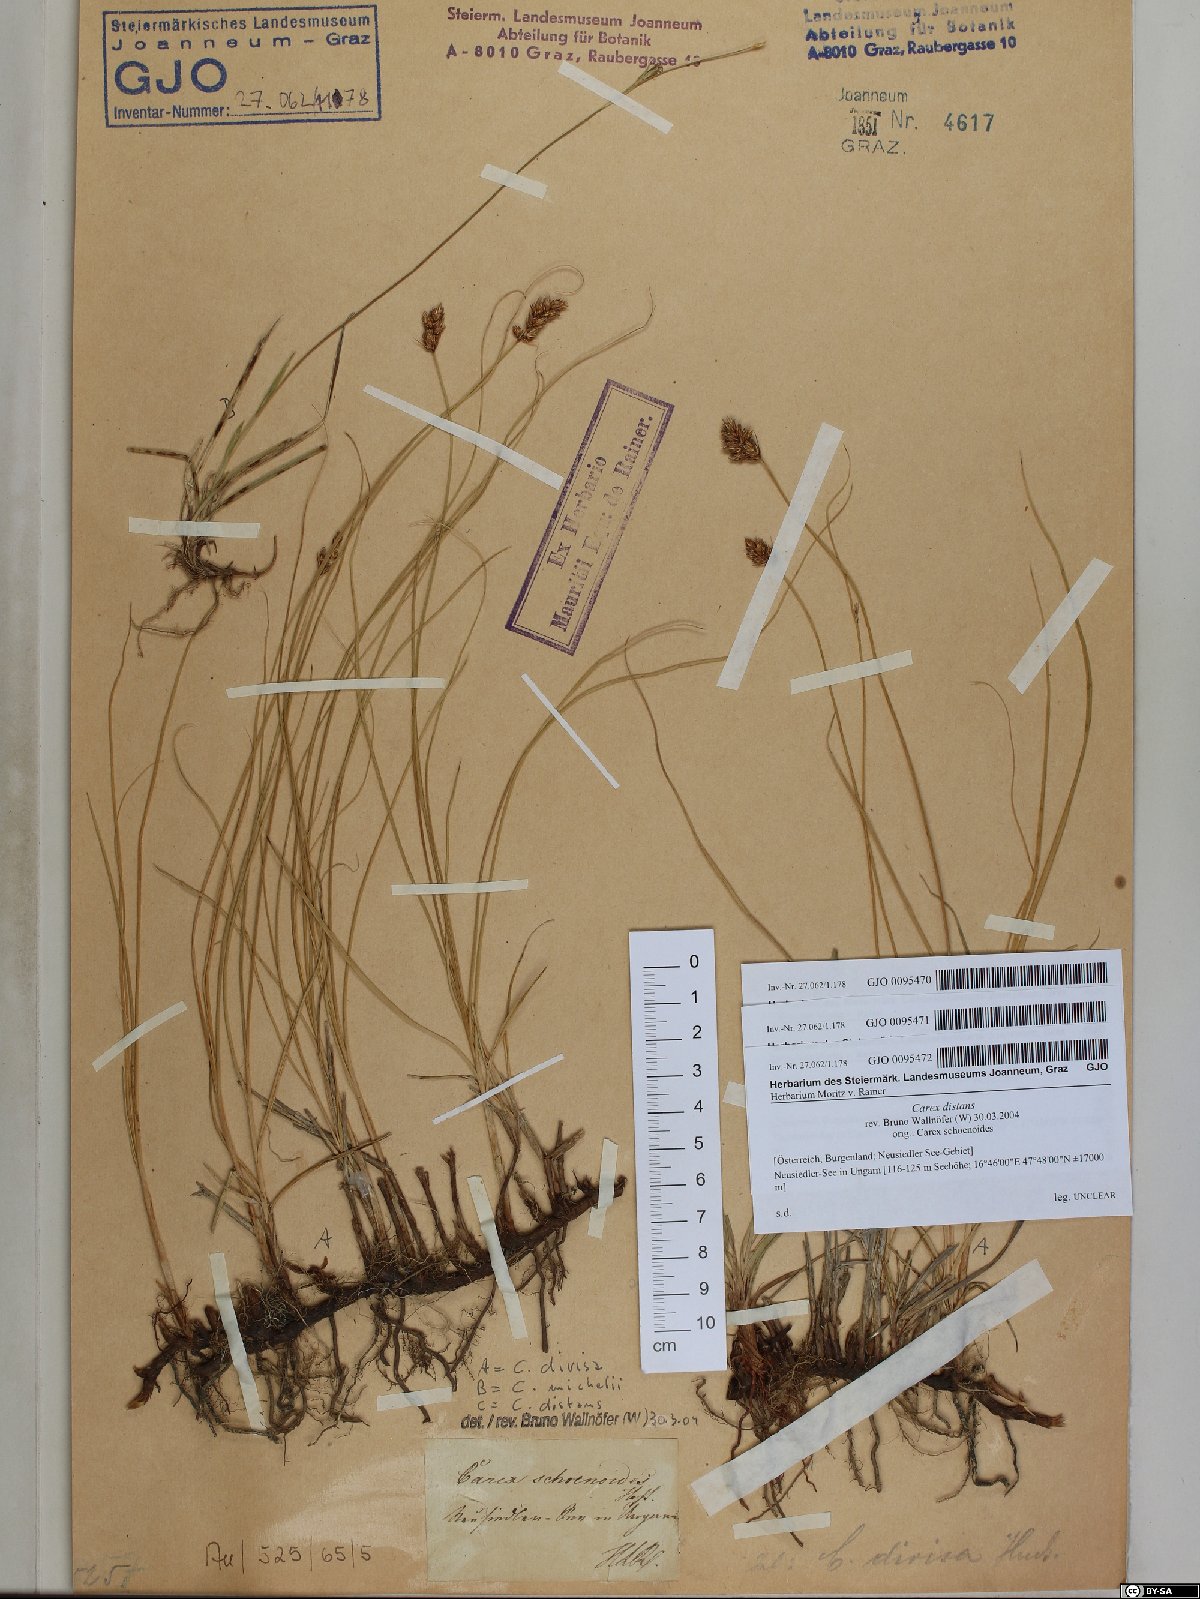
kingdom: Plantae
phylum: Tracheophyta
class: Liliopsida
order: Poales
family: Cyperaceae
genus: Carex
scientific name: Carex divisa
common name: Divided sedge
